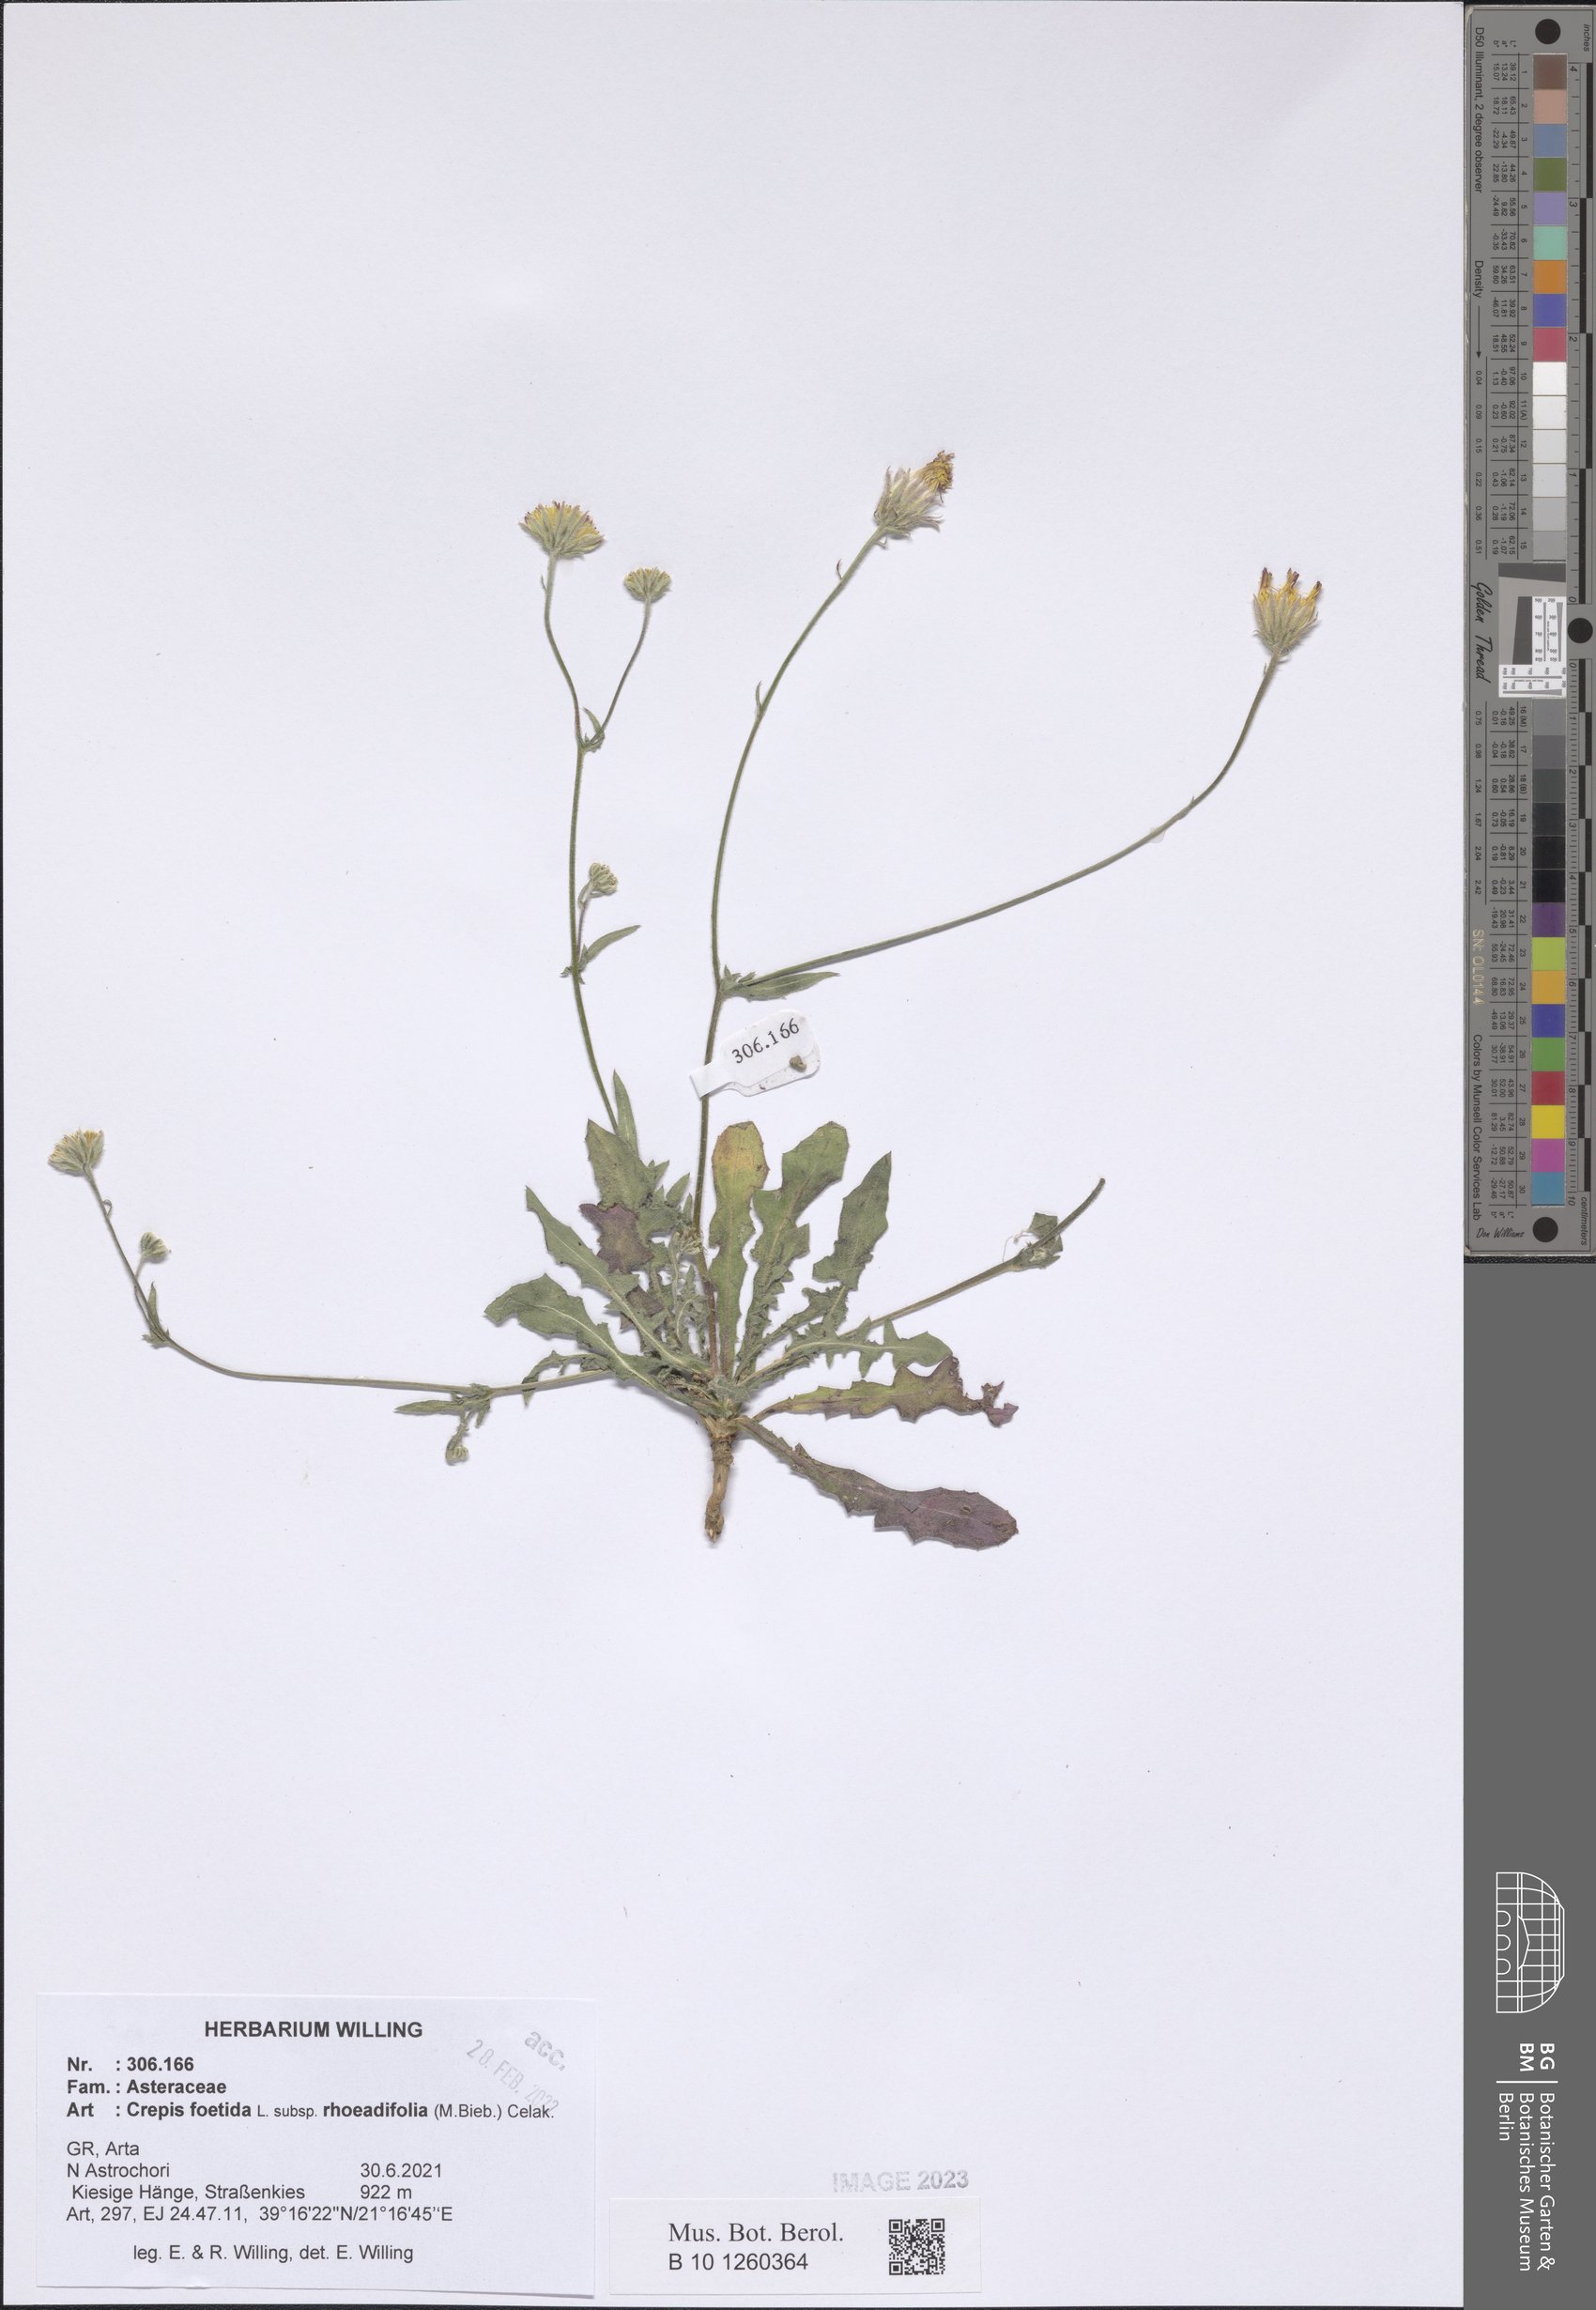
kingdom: Plantae
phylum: Tracheophyta
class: Magnoliopsida
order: Asterales
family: Asteraceae
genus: Crepis
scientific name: Crepis foetida
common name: Stinking hawk's-beard
